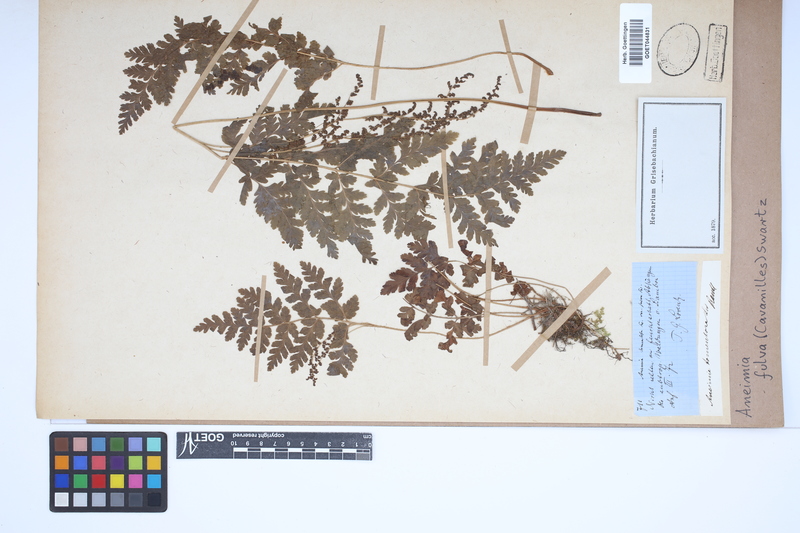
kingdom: Plantae
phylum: Tracheophyta
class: Polypodiopsida
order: Schizaeales
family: Anemiaceae
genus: Anemia
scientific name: Anemia ferruginea
